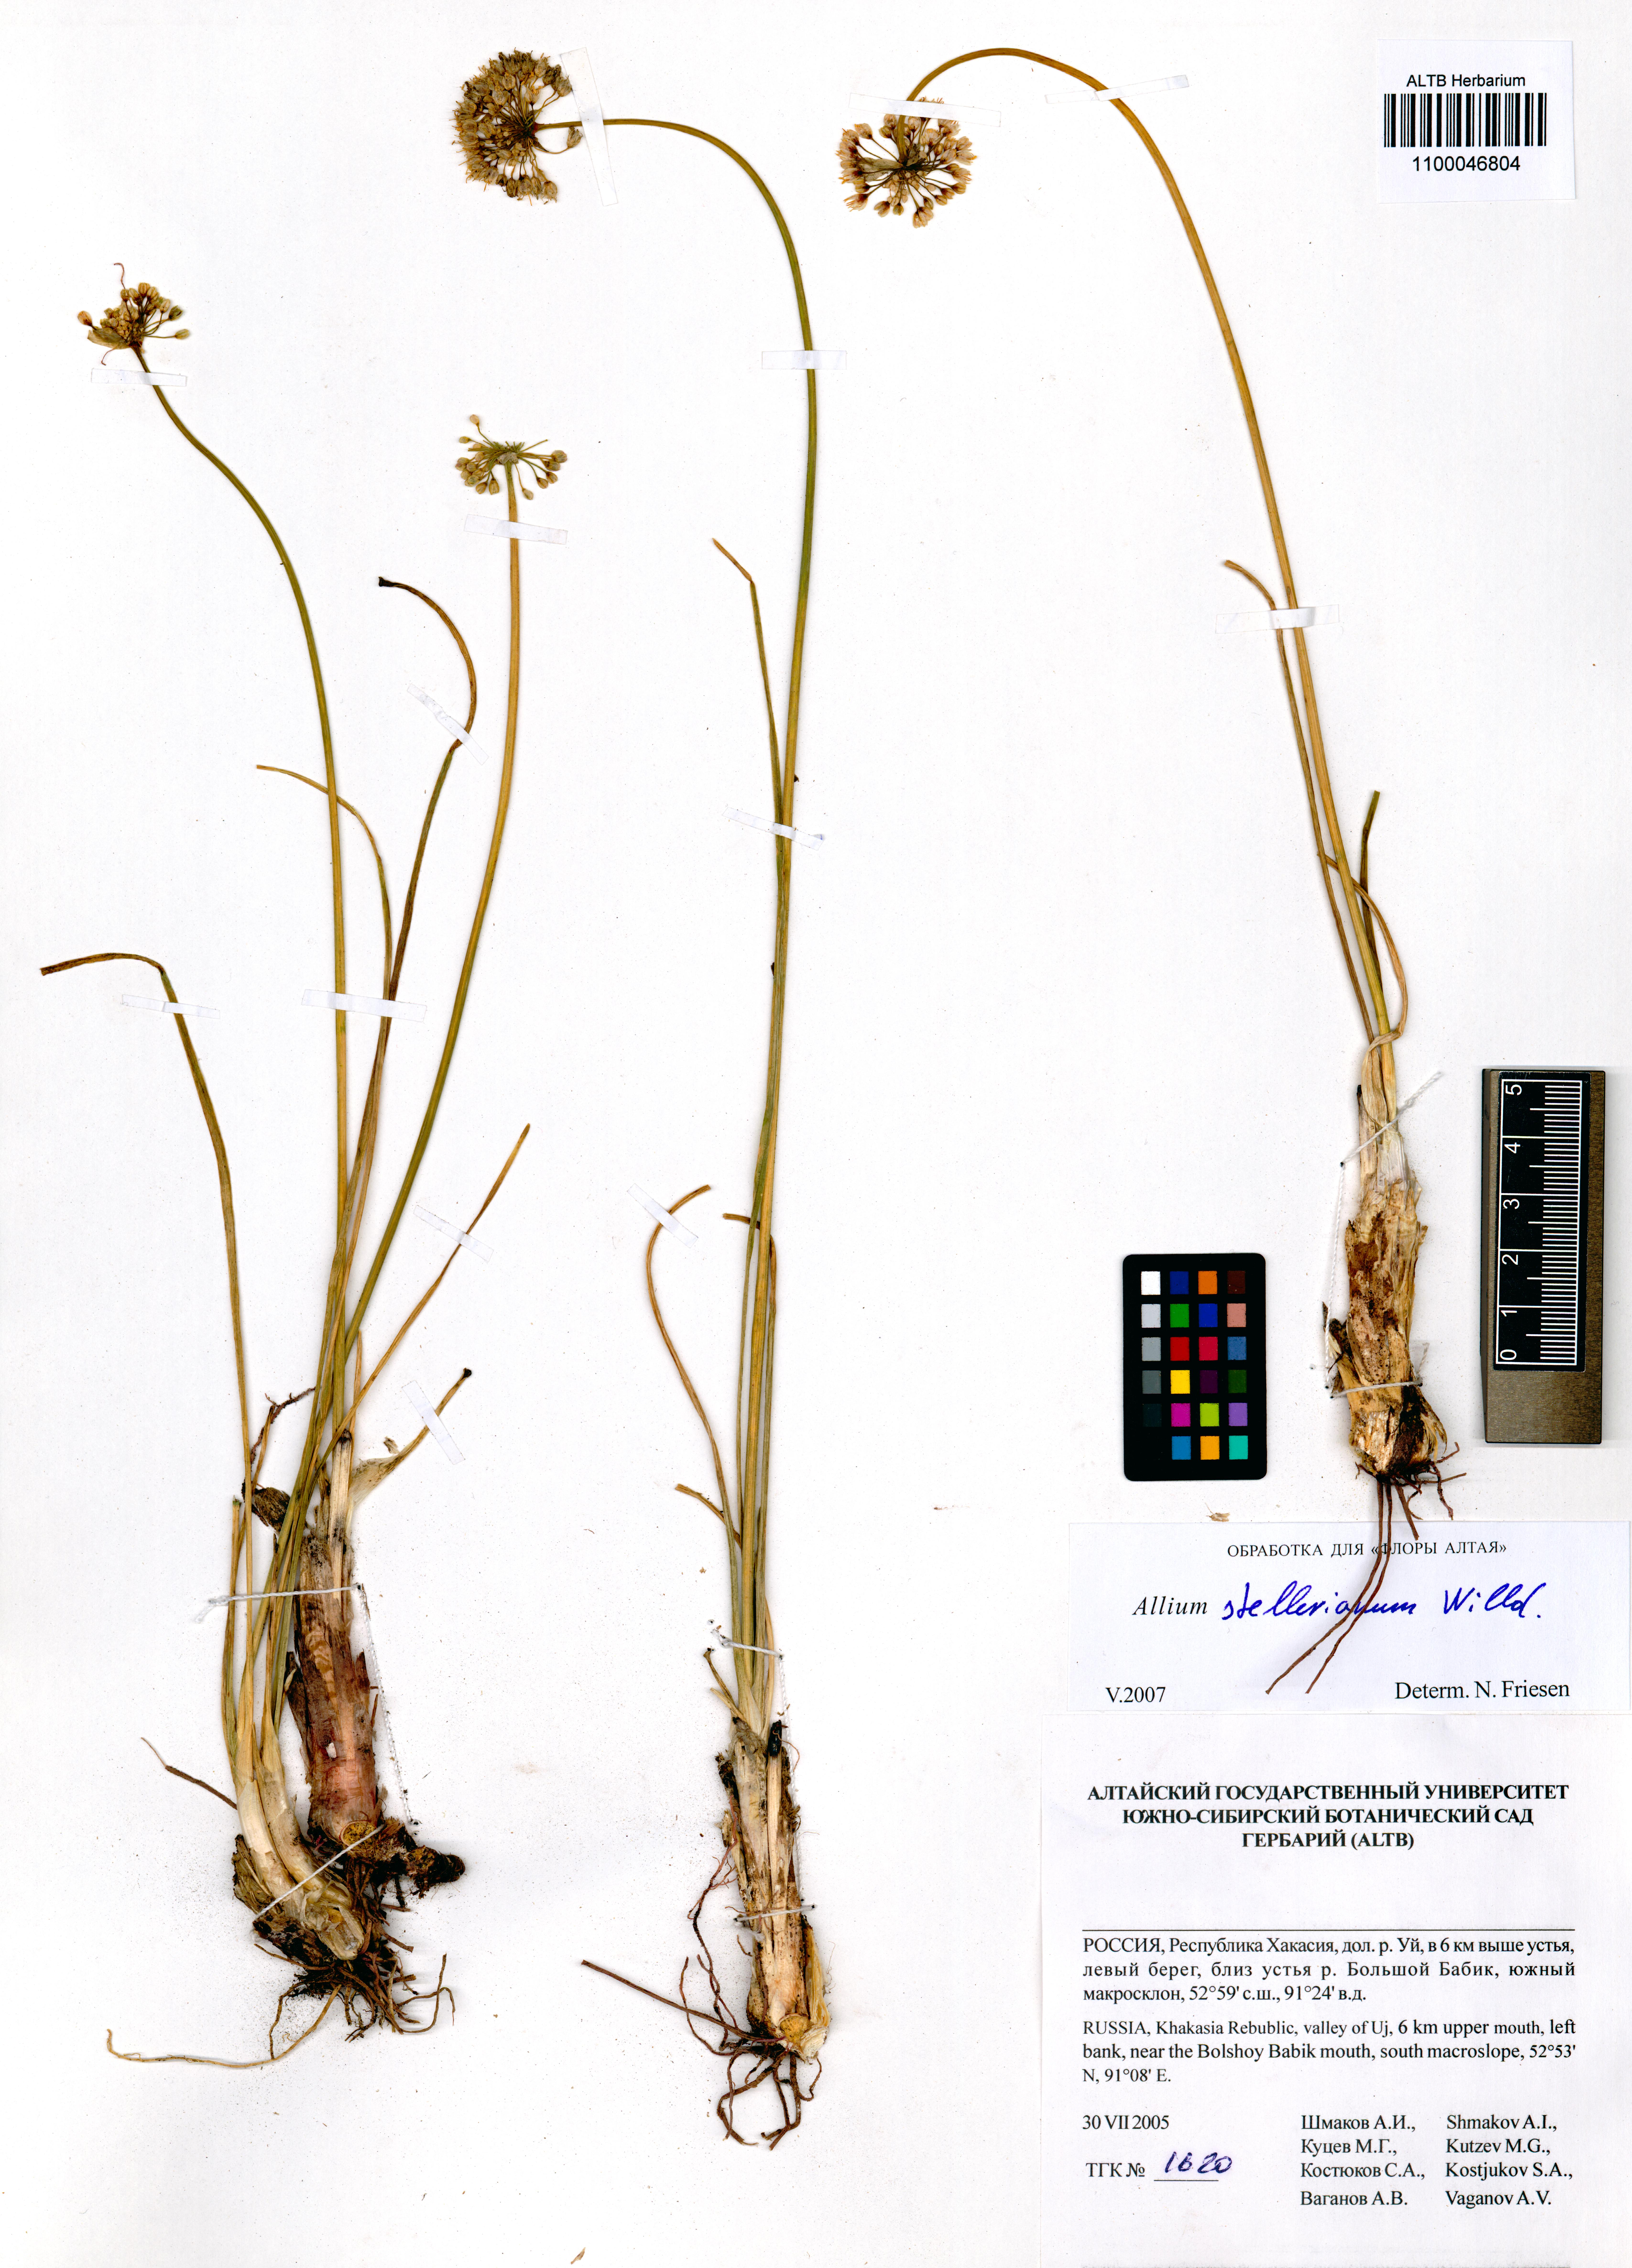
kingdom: Plantae
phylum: Tracheophyta
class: Liliopsida
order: Asparagales
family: Amaryllidaceae
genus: Allium
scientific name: Allium stellerianum
